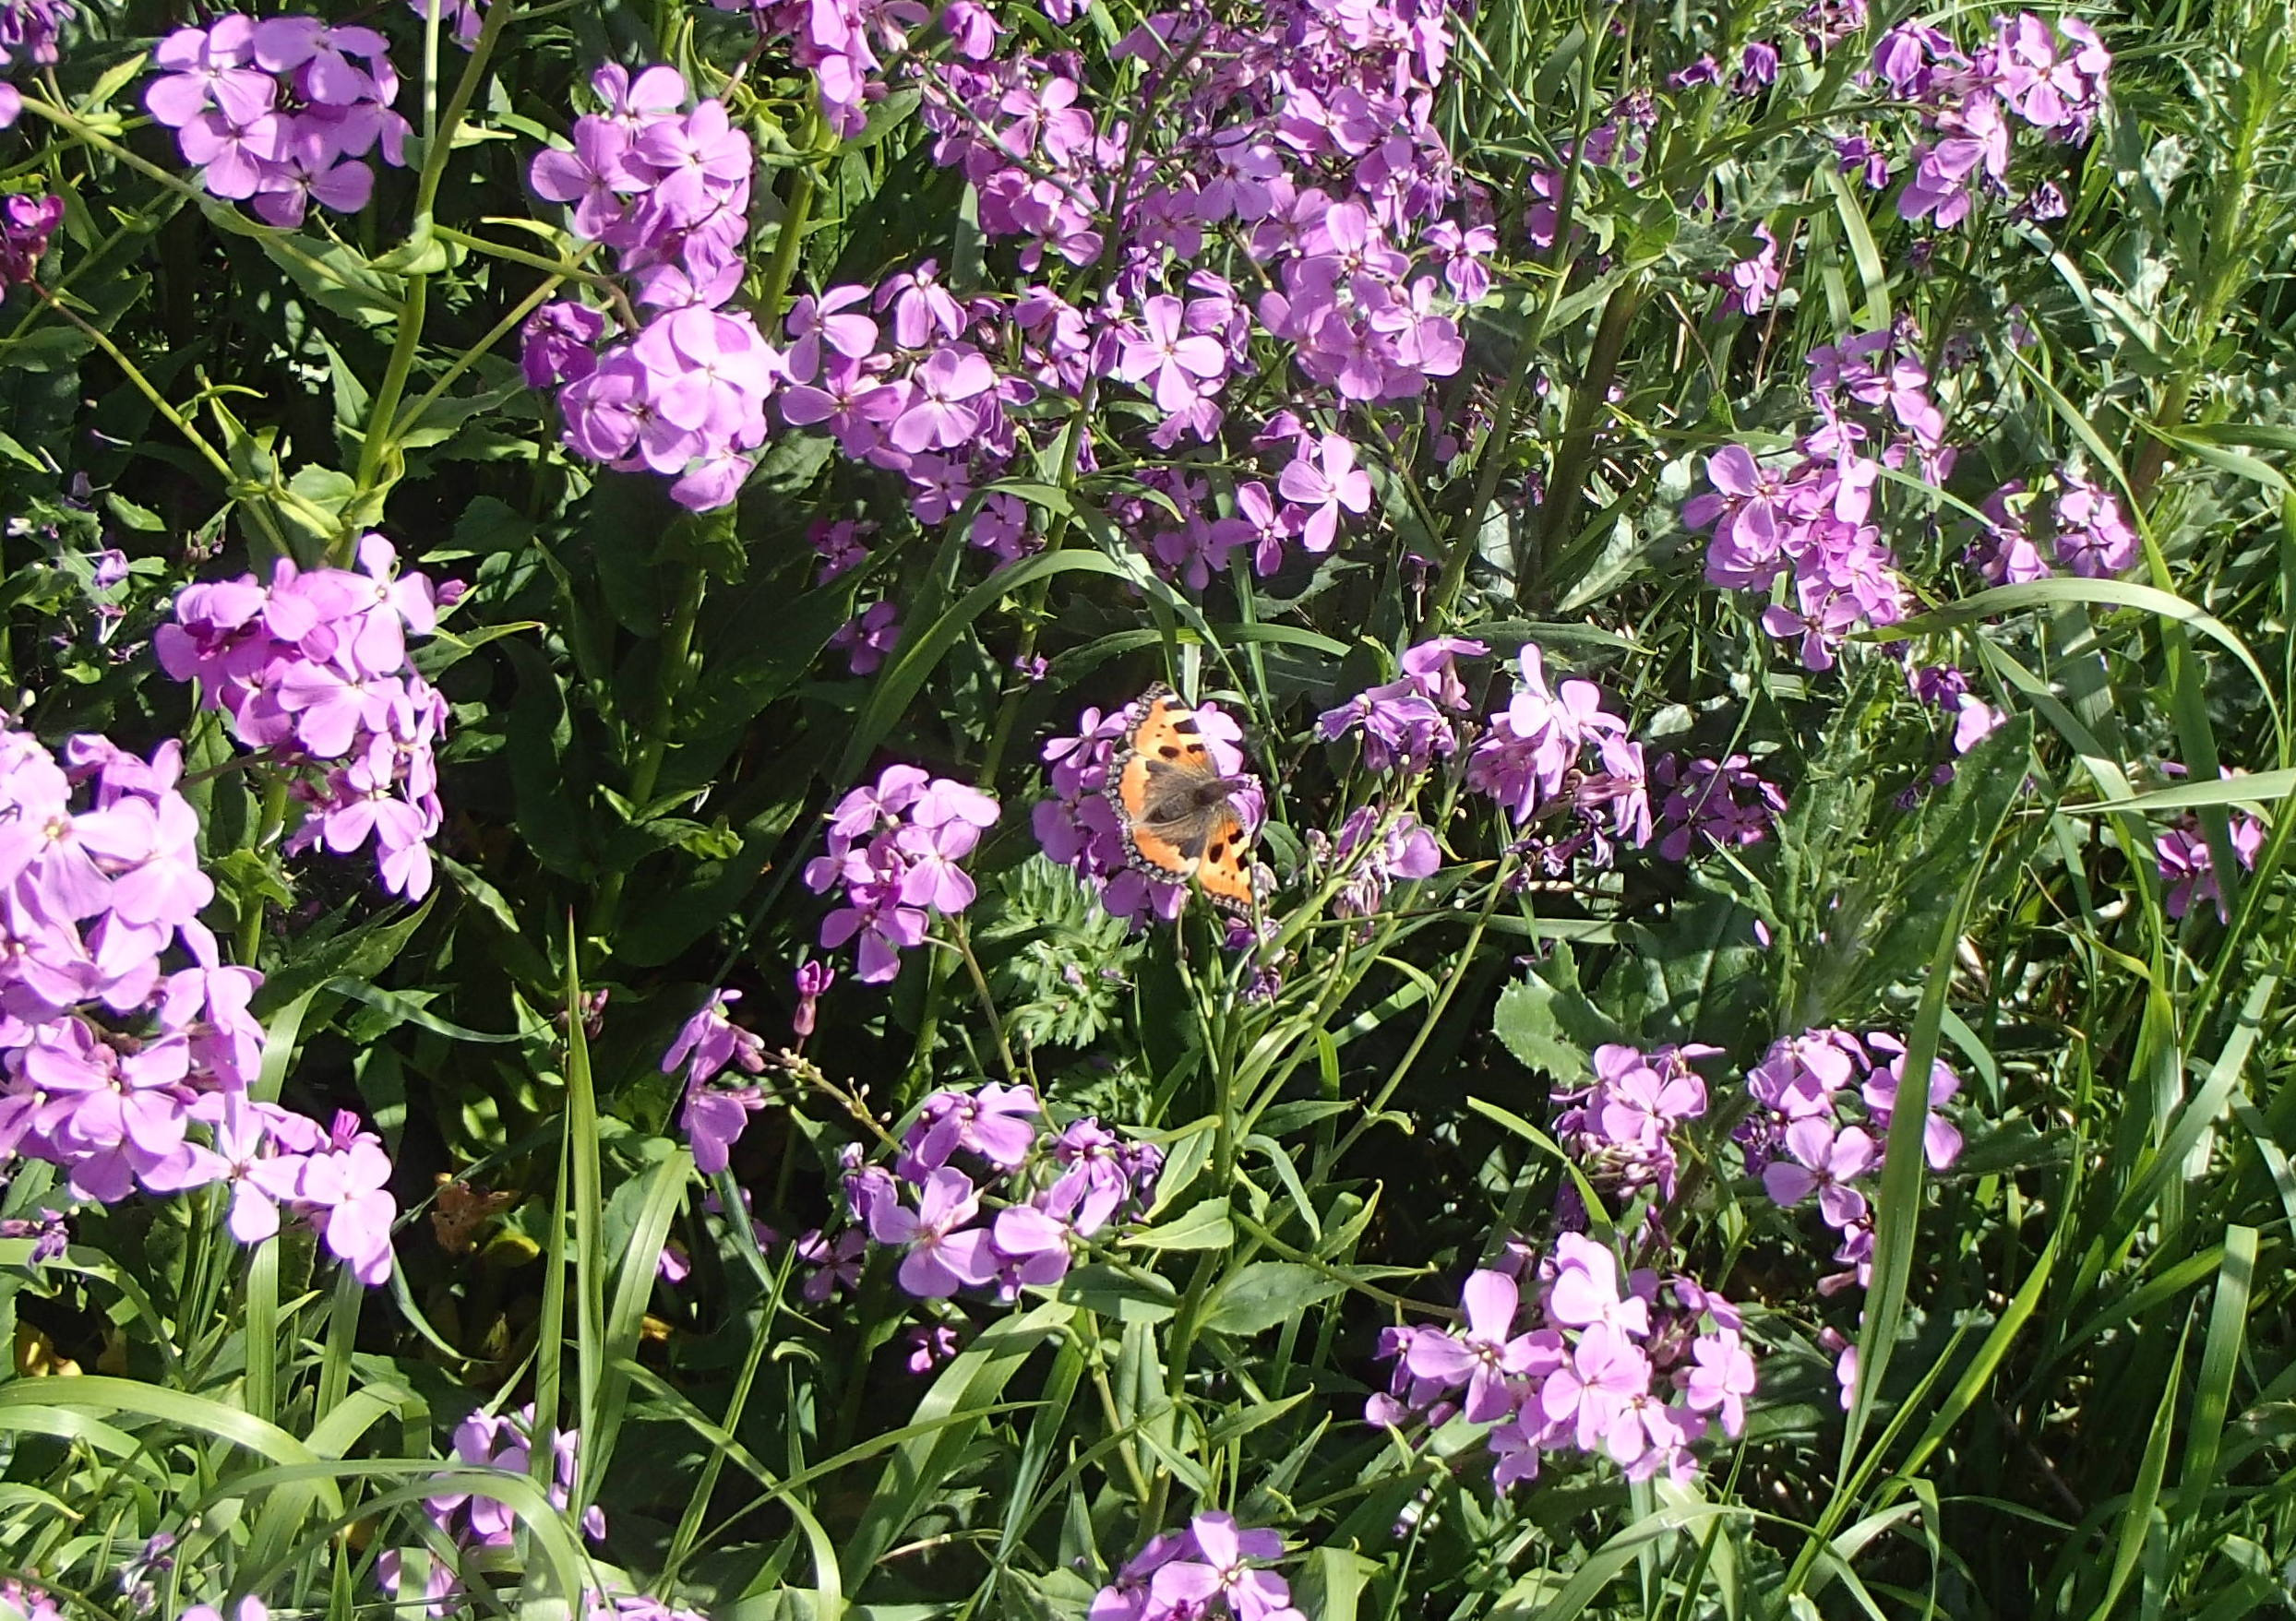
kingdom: Plantae
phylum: Tracheophyta
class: Magnoliopsida
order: Brassicales
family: Brassicaceae
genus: Hesperis
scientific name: Hesperis matronalis
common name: Aftenstjerne
